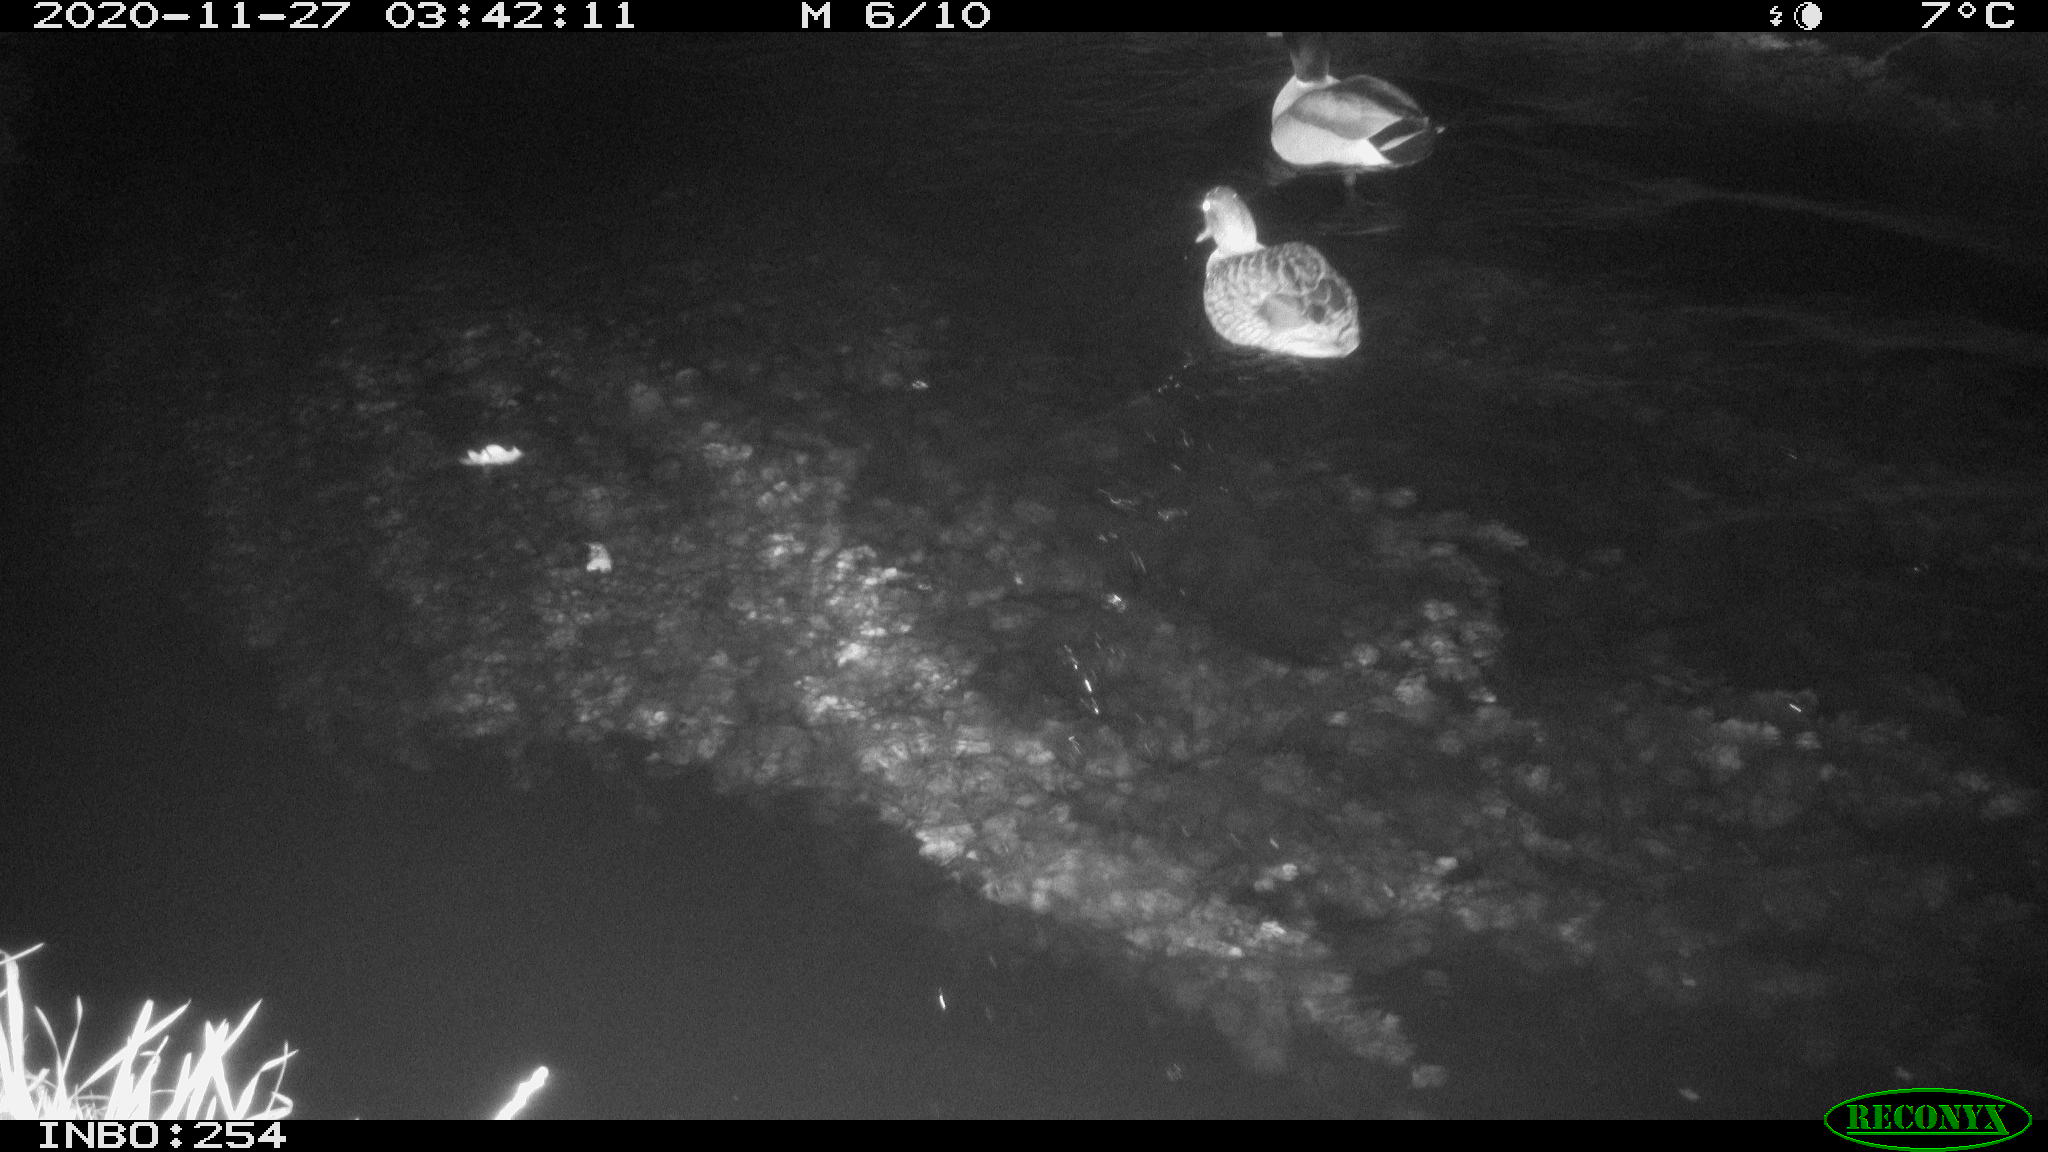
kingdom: Animalia
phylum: Chordata
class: Aves
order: Anseriformes
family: Anatidae
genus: Anas
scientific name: Anas platyrhynchos
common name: Mallard
